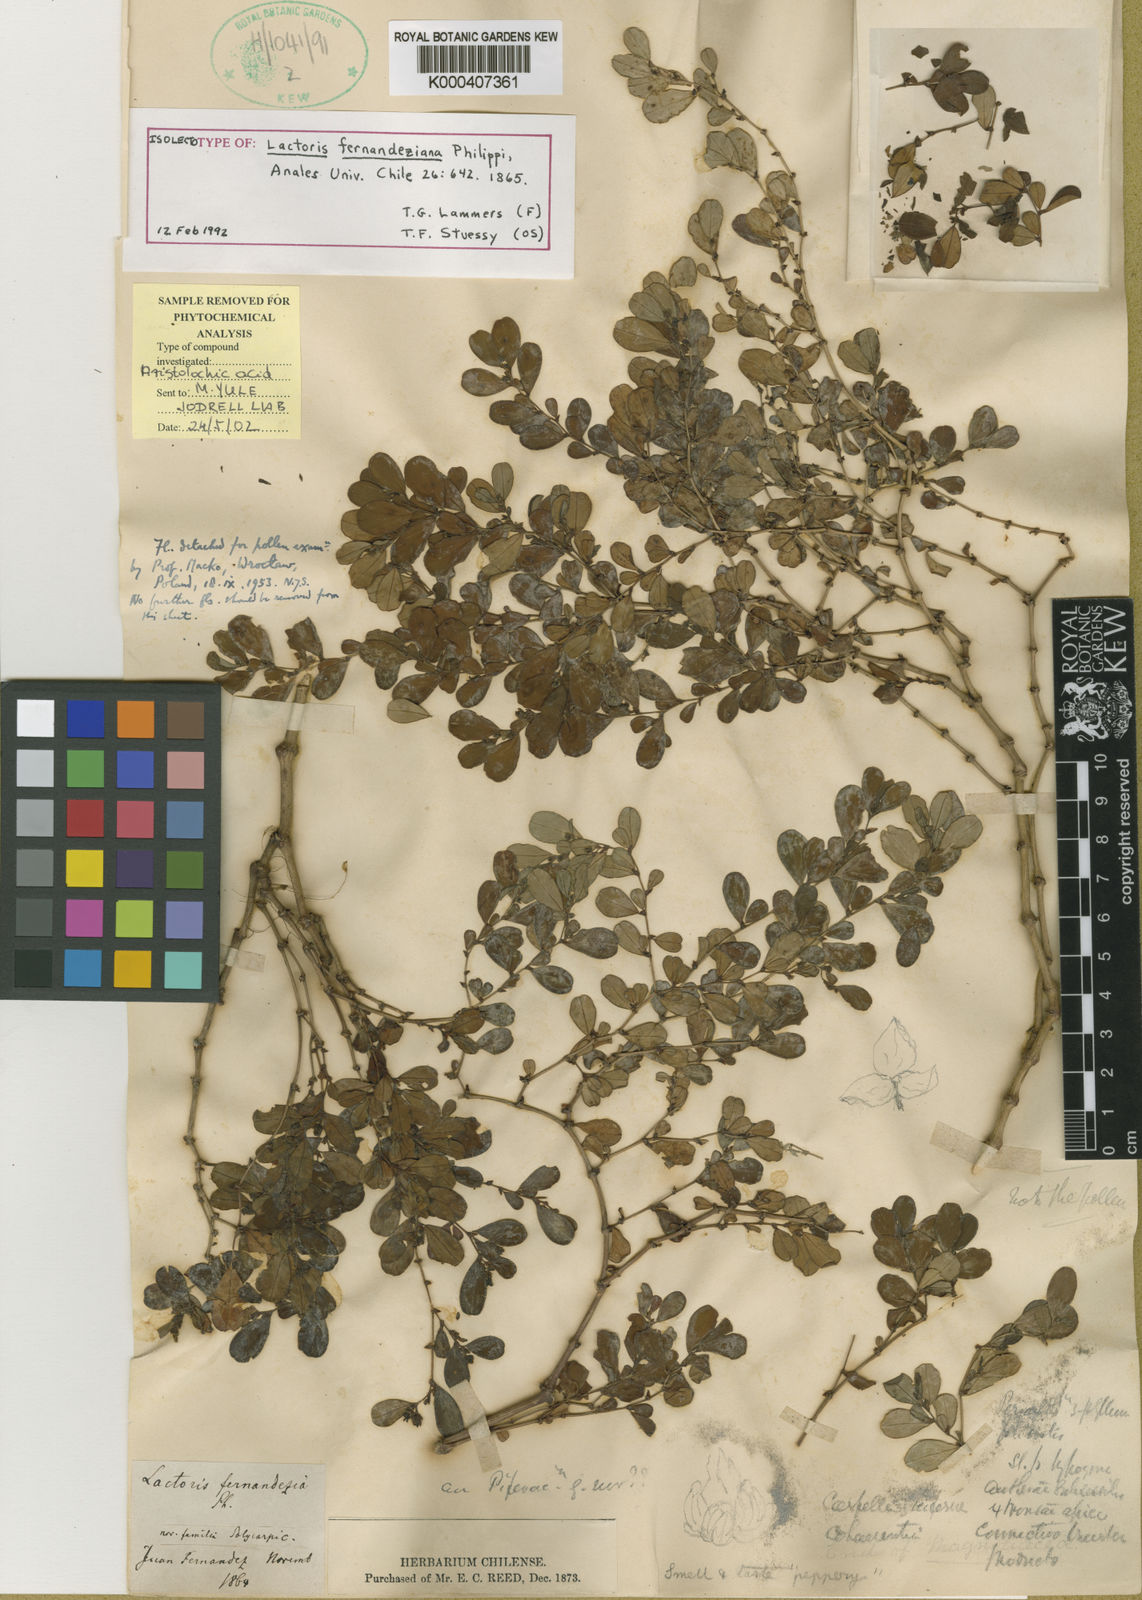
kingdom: Plantae
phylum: Tracheophyta
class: Magnoliopsida
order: Piperales
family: Aristolochiaceae
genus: Lactoris
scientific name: Lactoris fernandeziana
